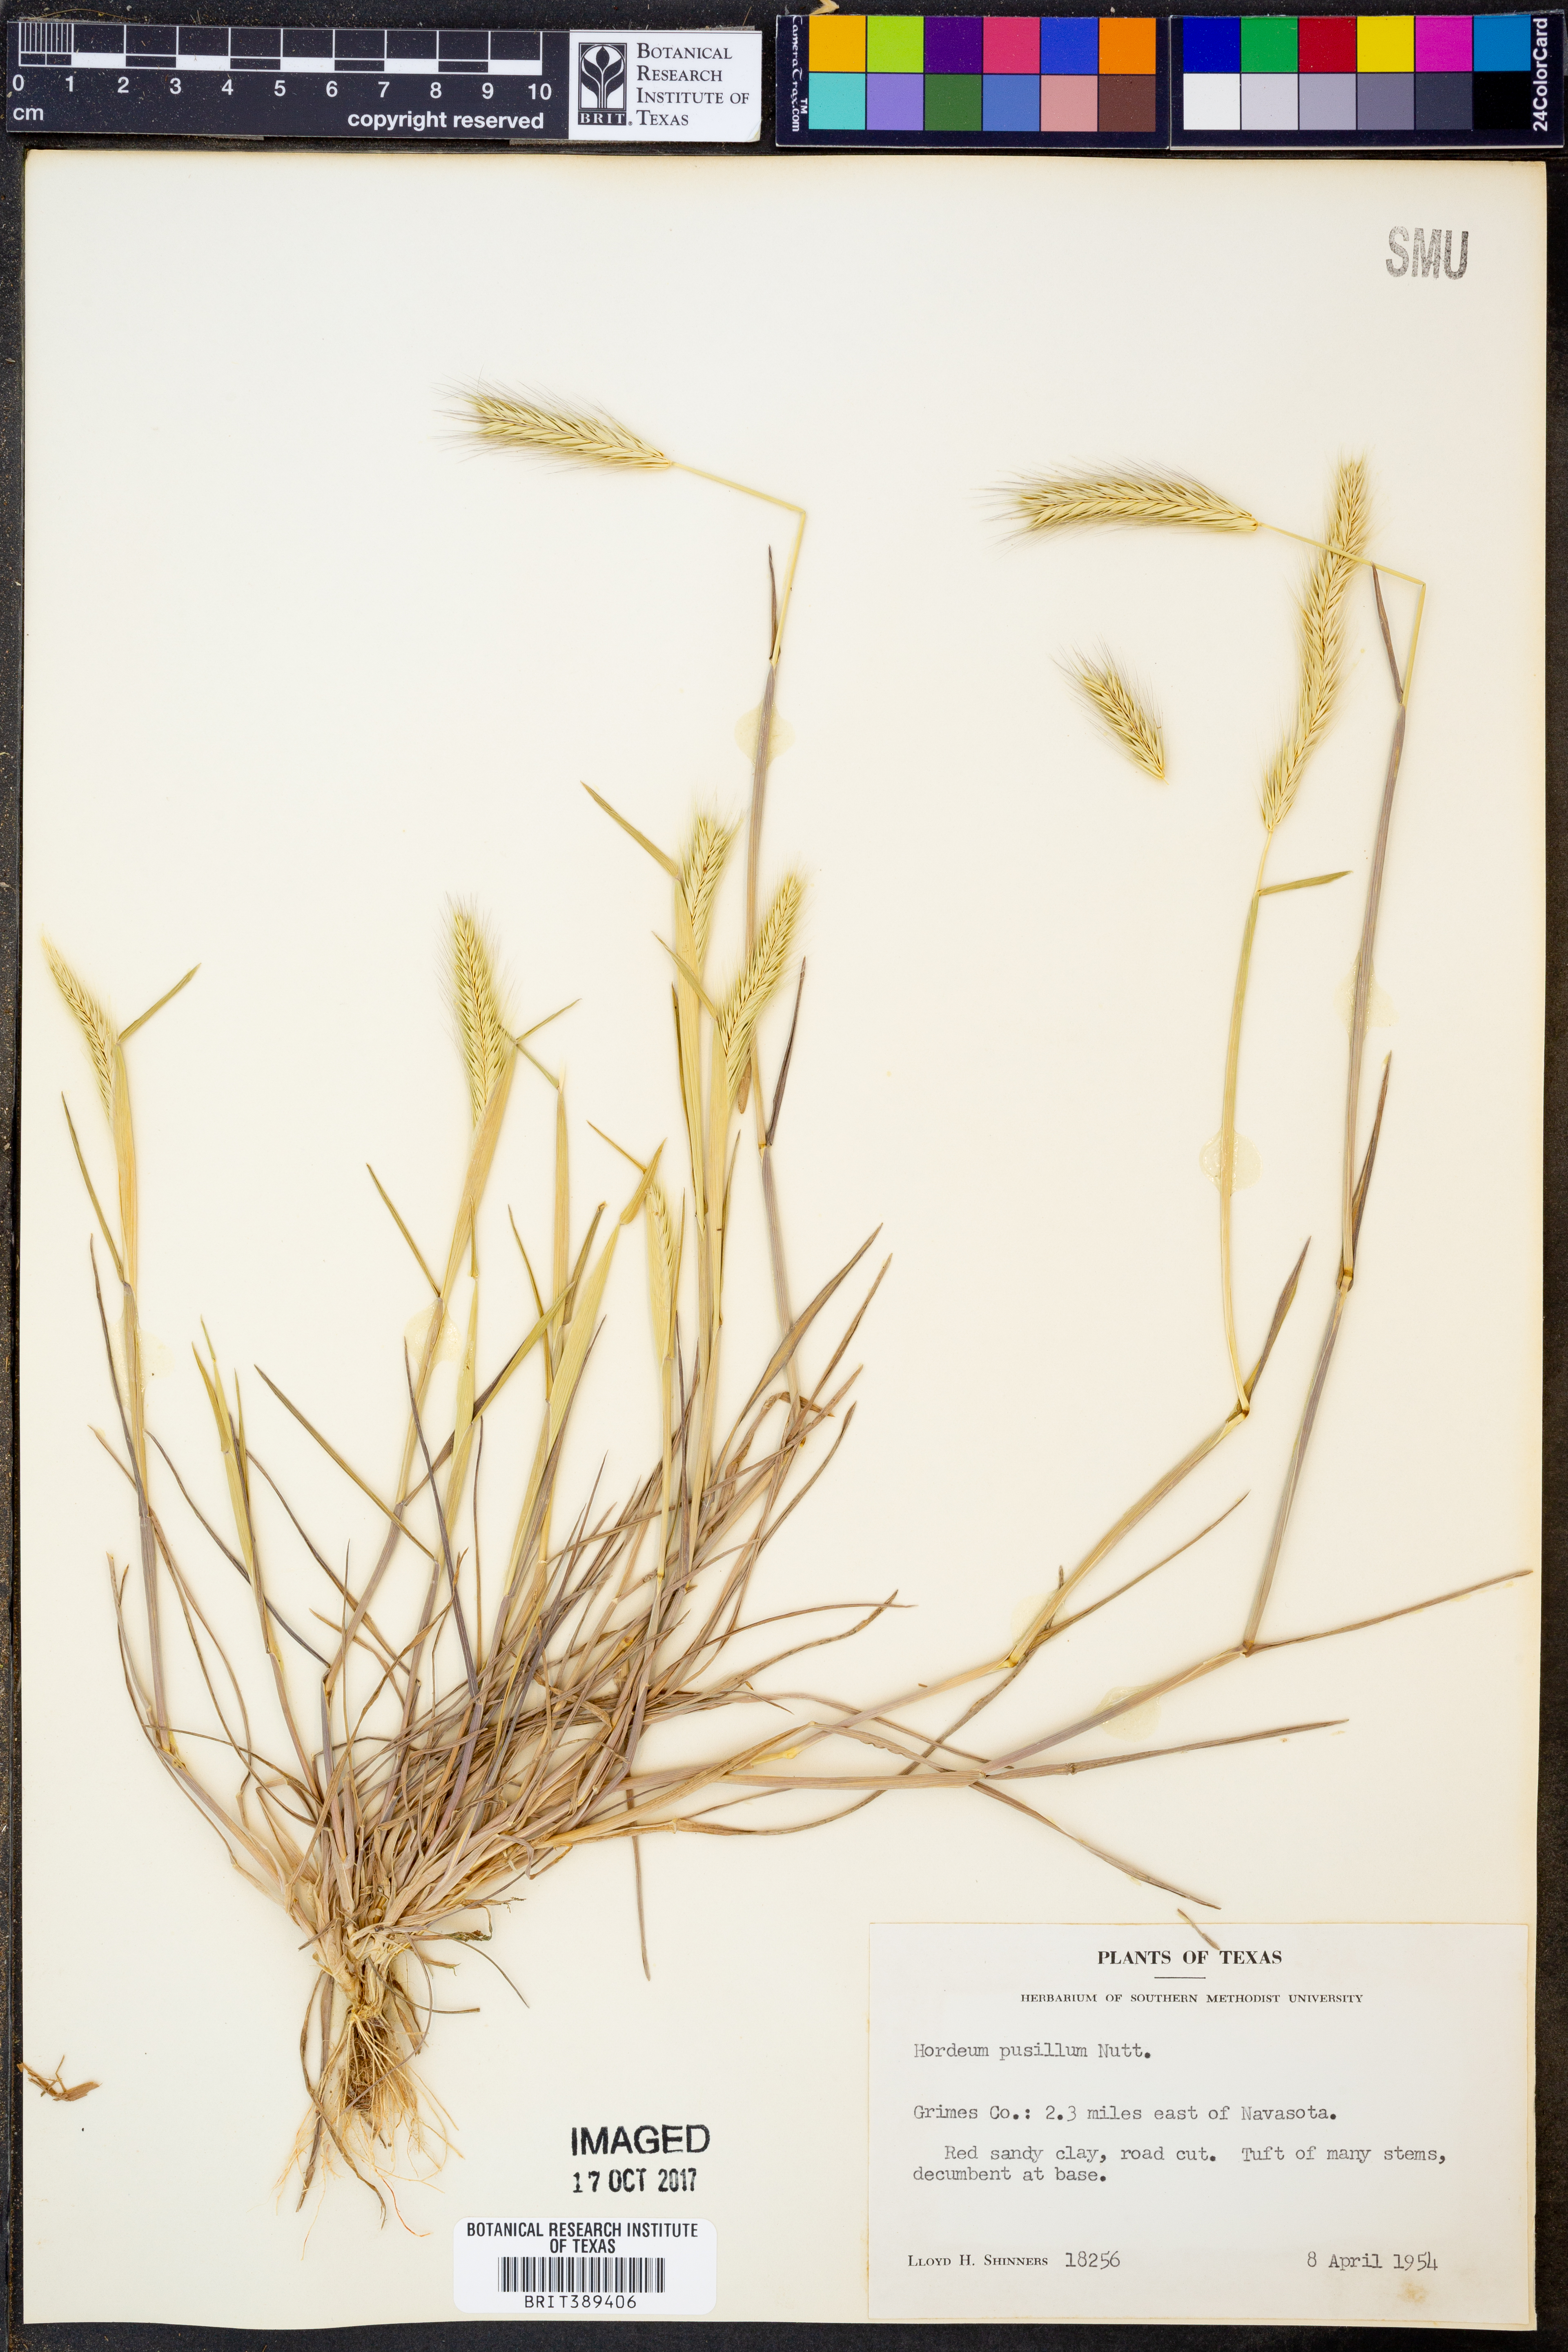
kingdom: Plantae
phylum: Tracheophyta
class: Liliopsida
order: Poales
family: Poaceae
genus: Hordeum
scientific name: Hordeum pusillum
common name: Little barley
